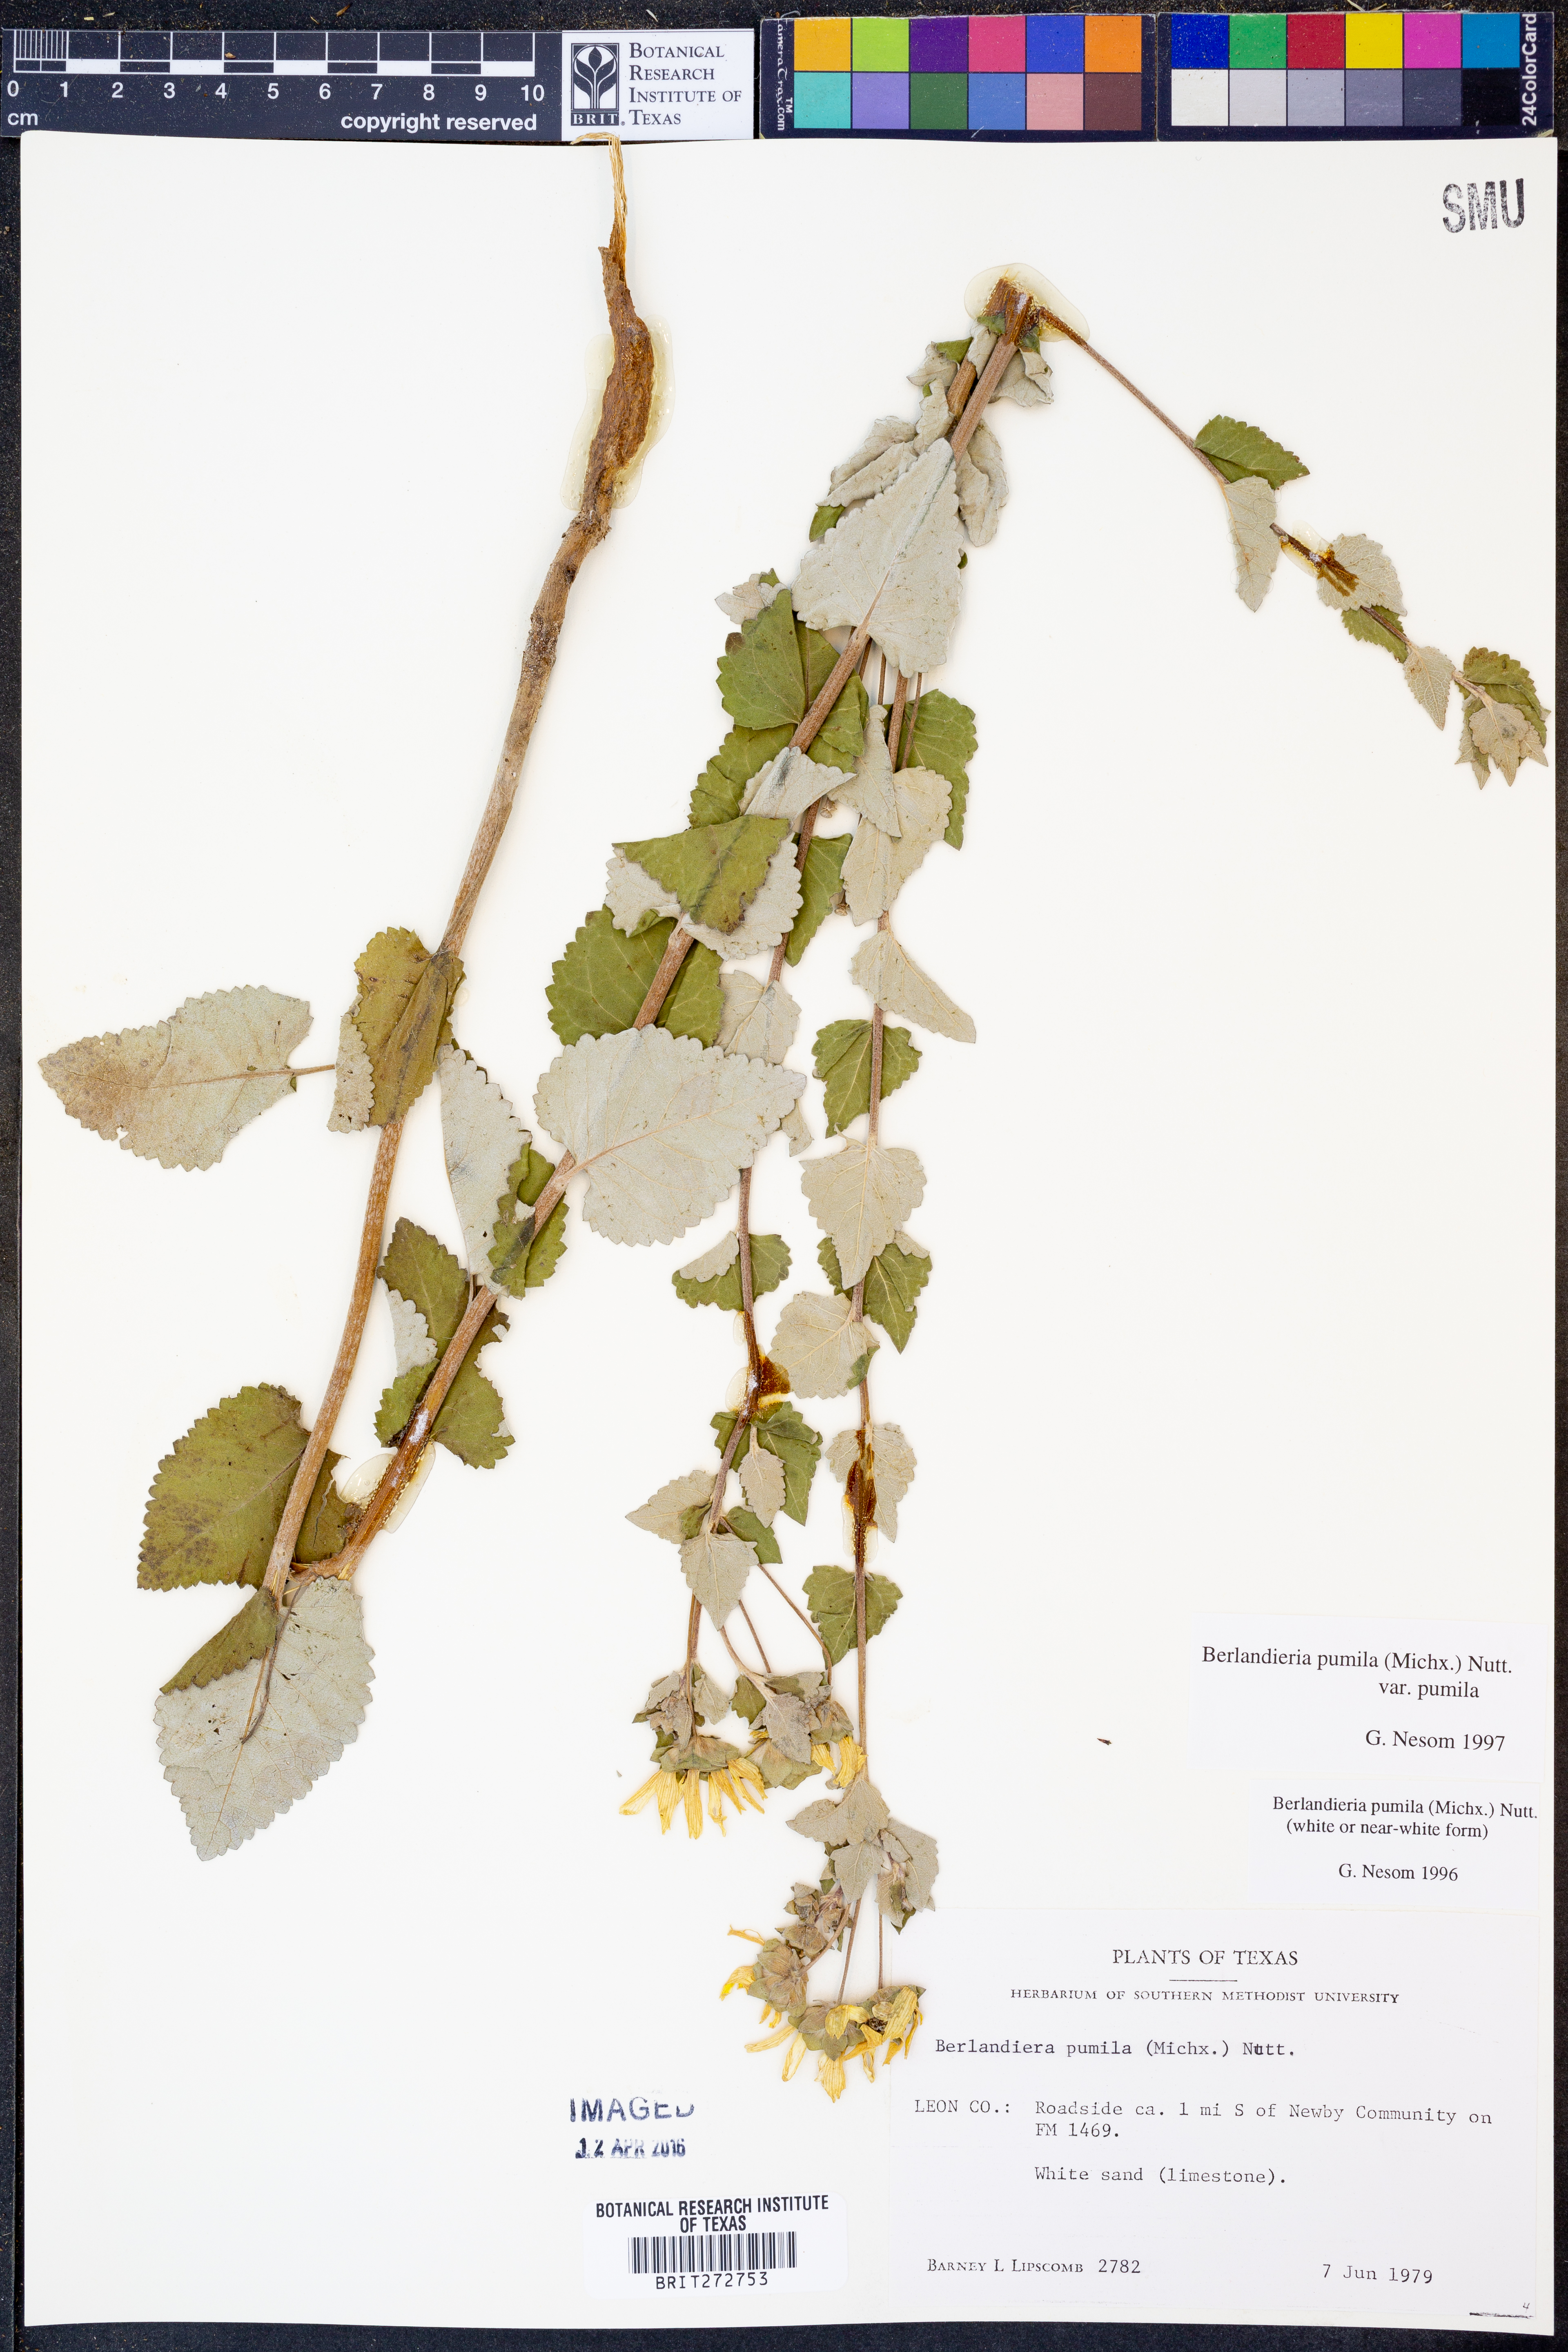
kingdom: Plantae
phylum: Tracheophyta
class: Magnoliopsida
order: Asterales
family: Asteraceae
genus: Berlandiera
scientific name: Berlandiera pumila
